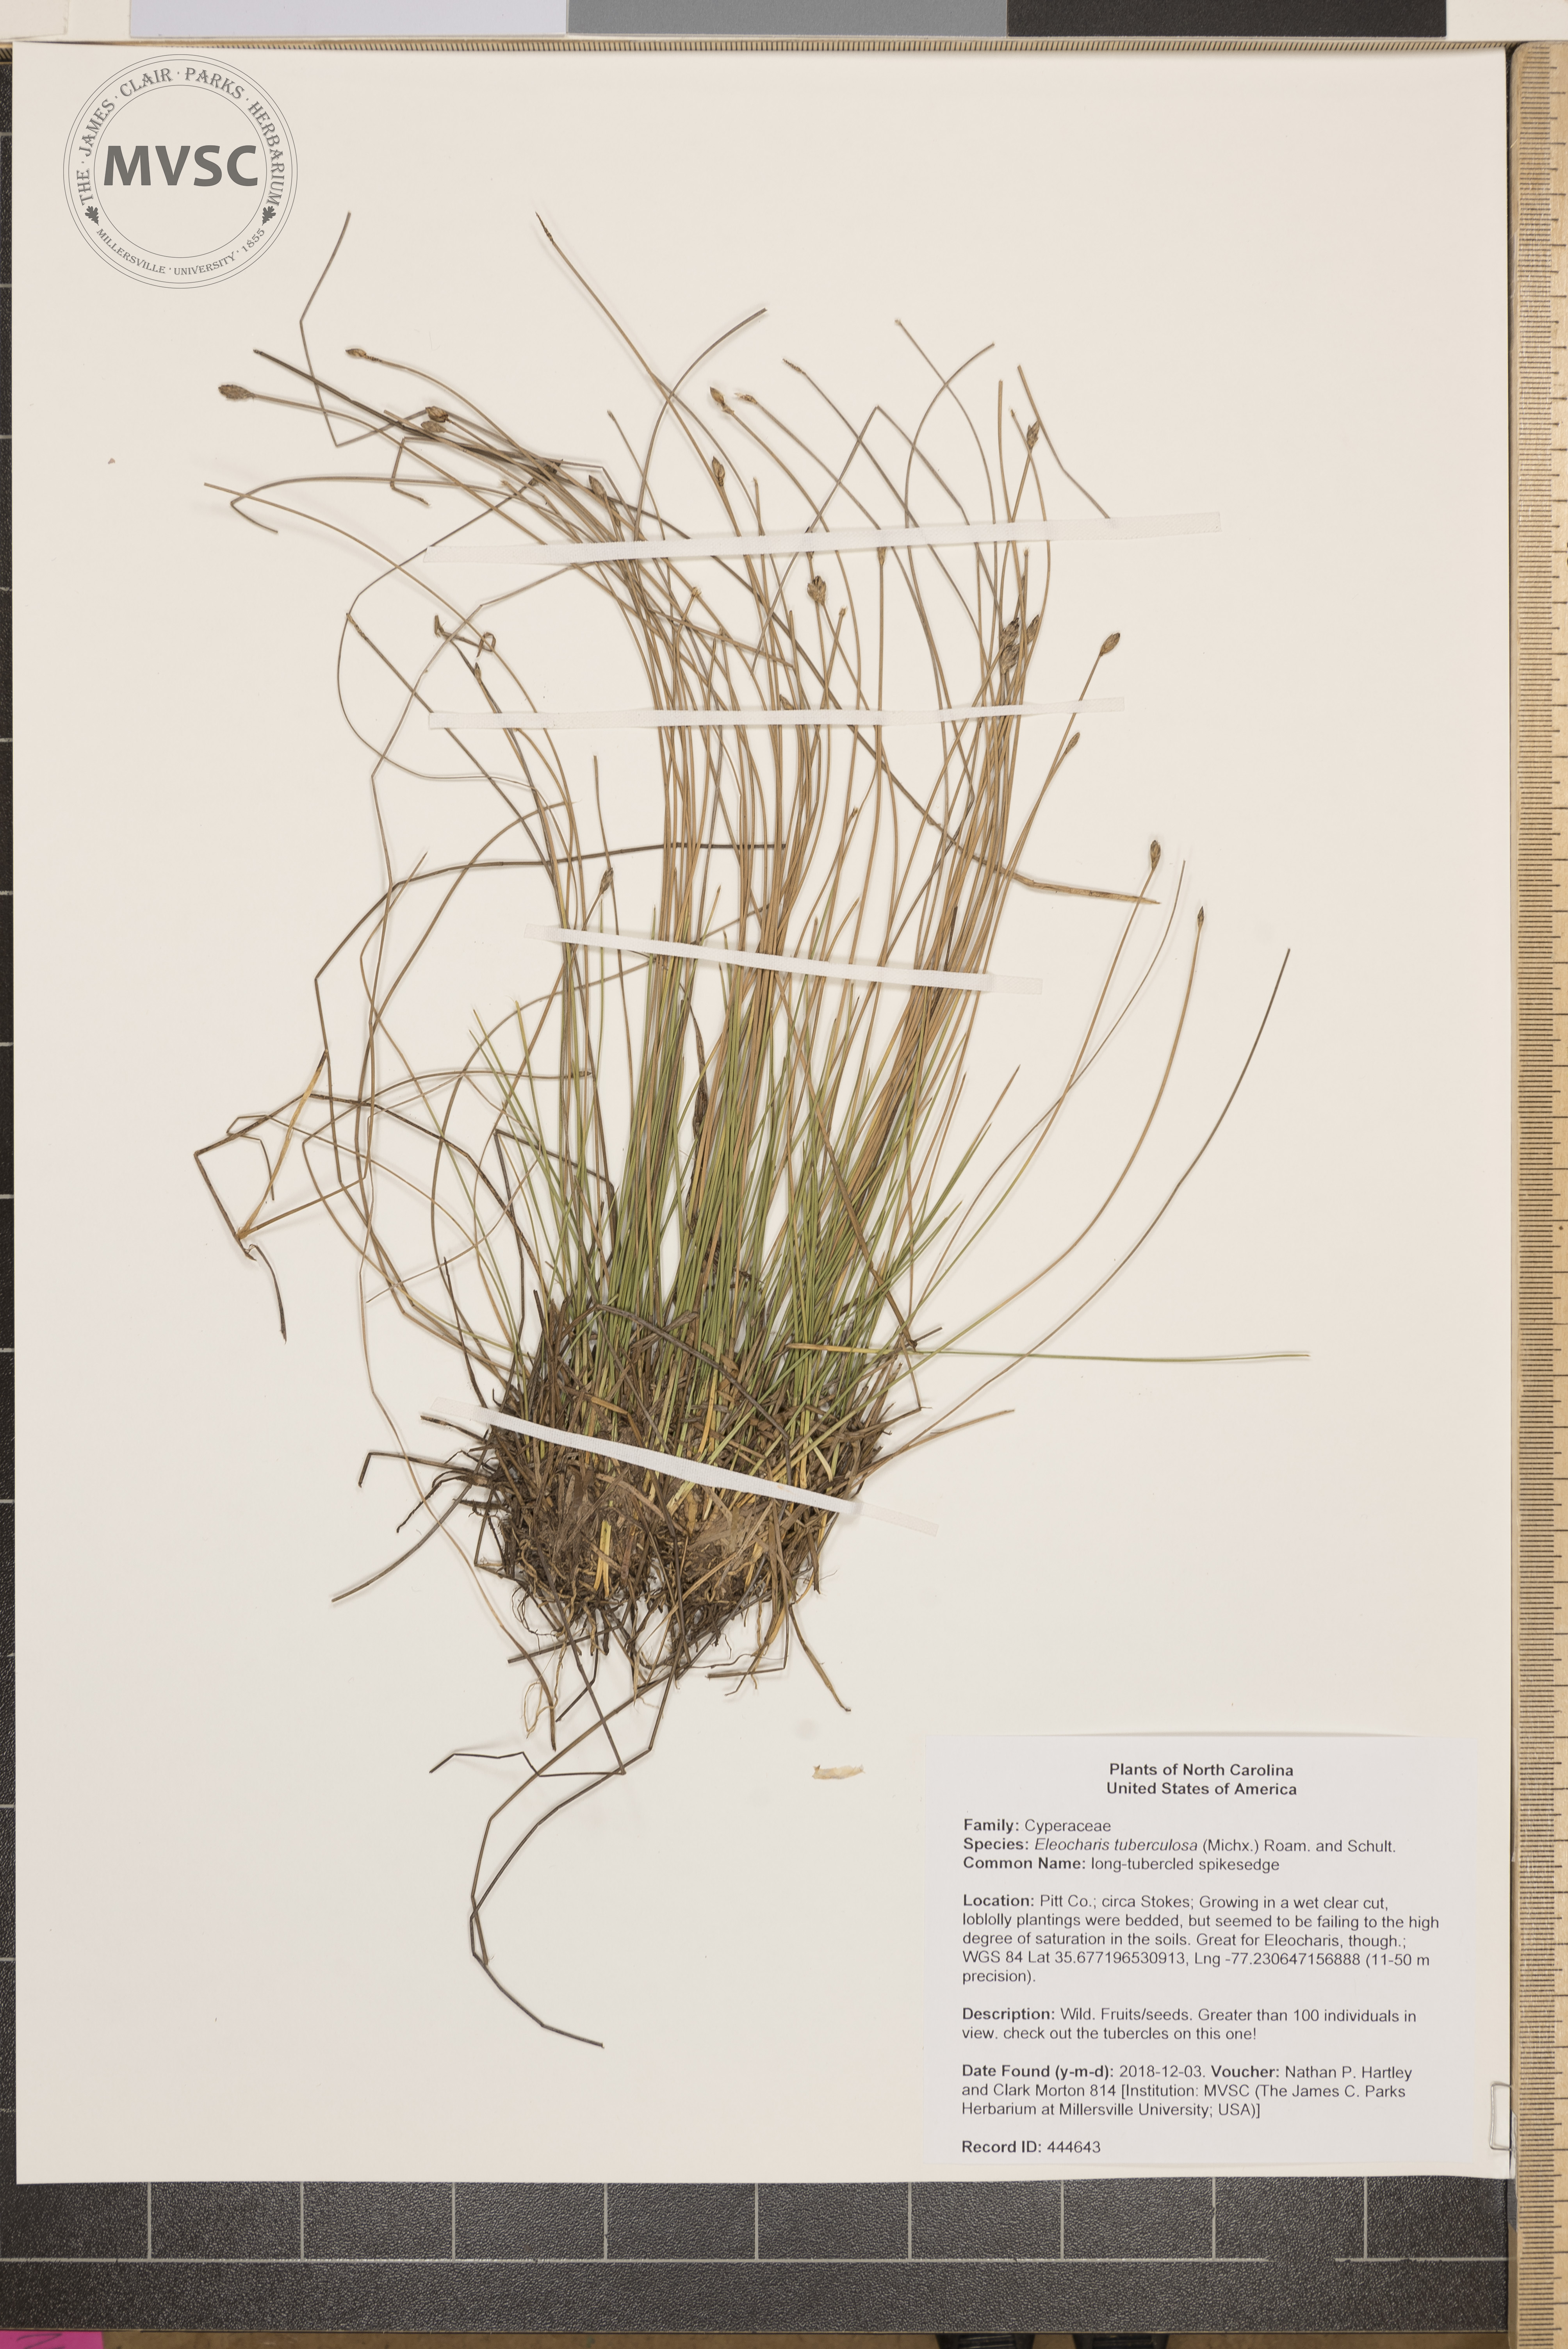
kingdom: Plantae
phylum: Tracheophyta
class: Liliopsida
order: Poales
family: Cyperaceae
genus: Eleocharis
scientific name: Eleocharis tuberculosa
